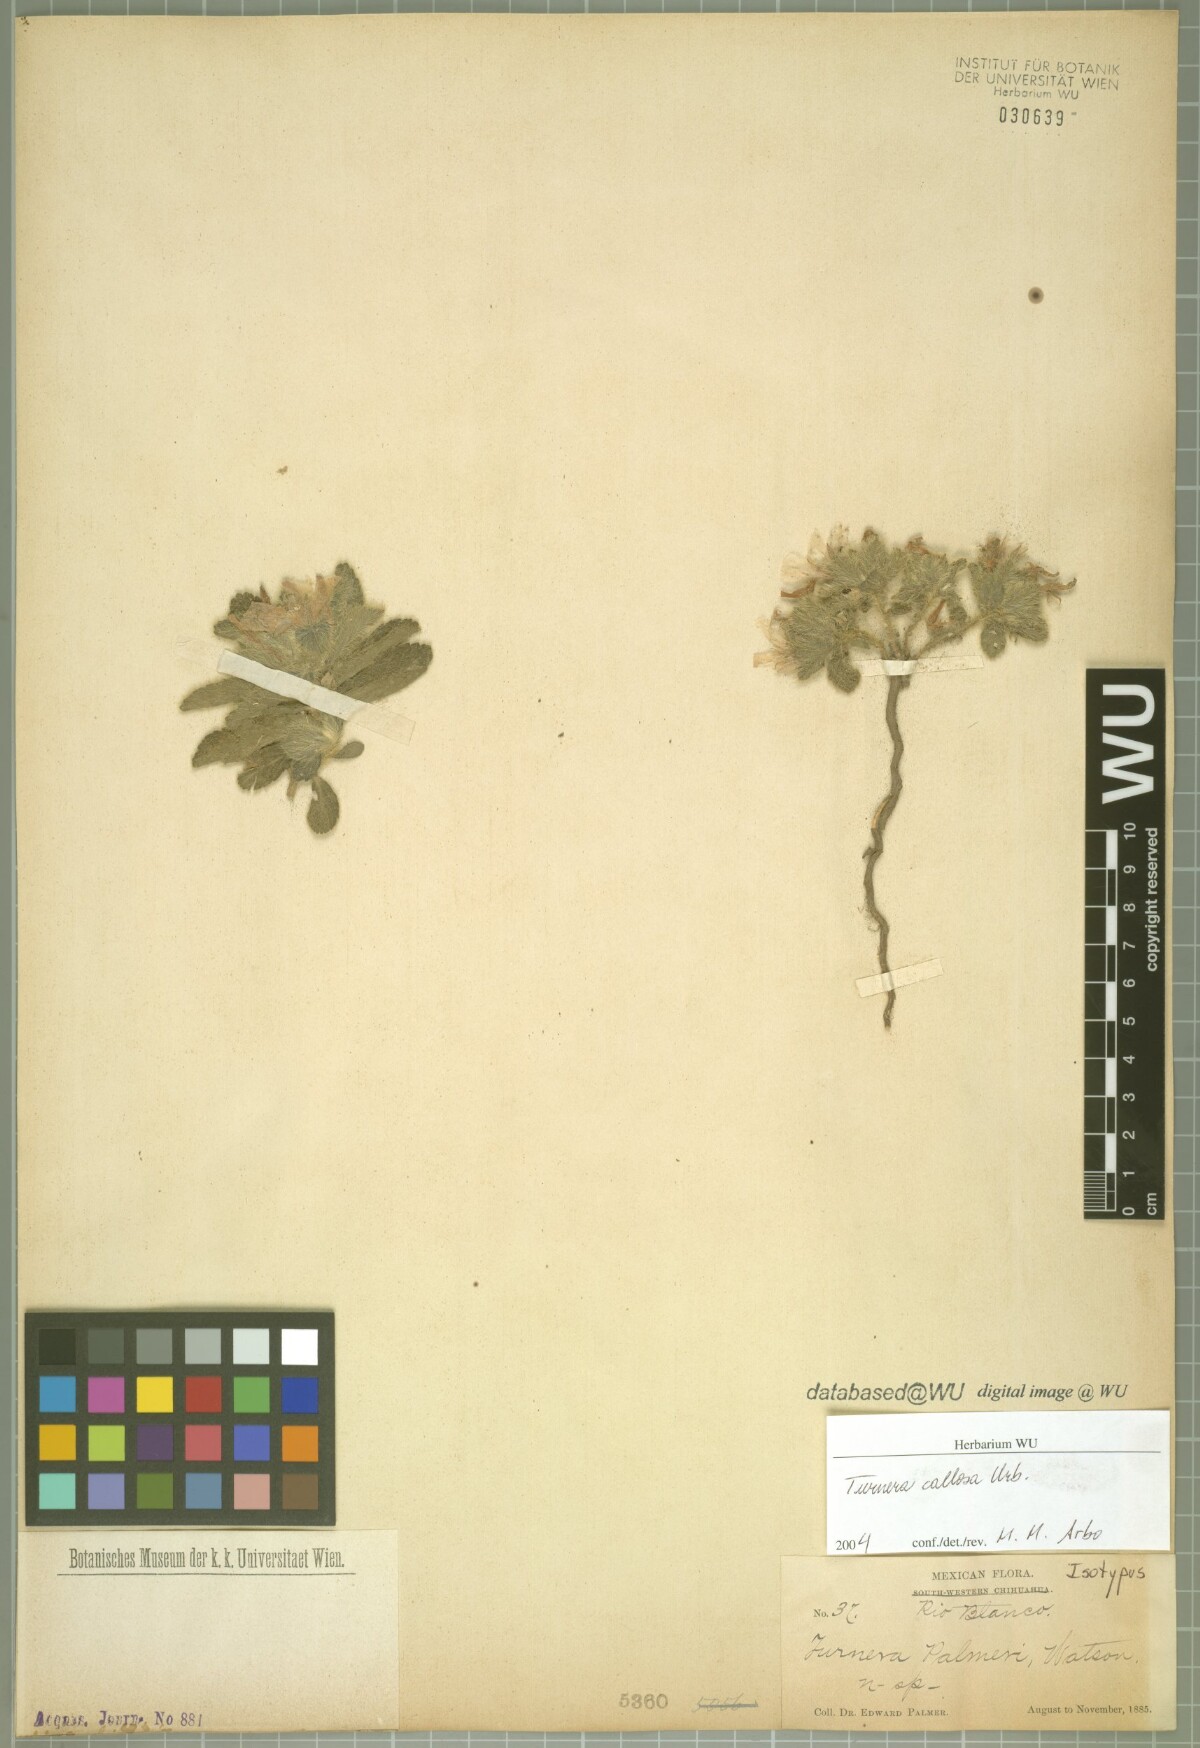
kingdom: Plantae
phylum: Tracheophyta
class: Magnoliopsida
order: Malpighiales
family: Turneraceae
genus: Turnera
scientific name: Turnera callosa
